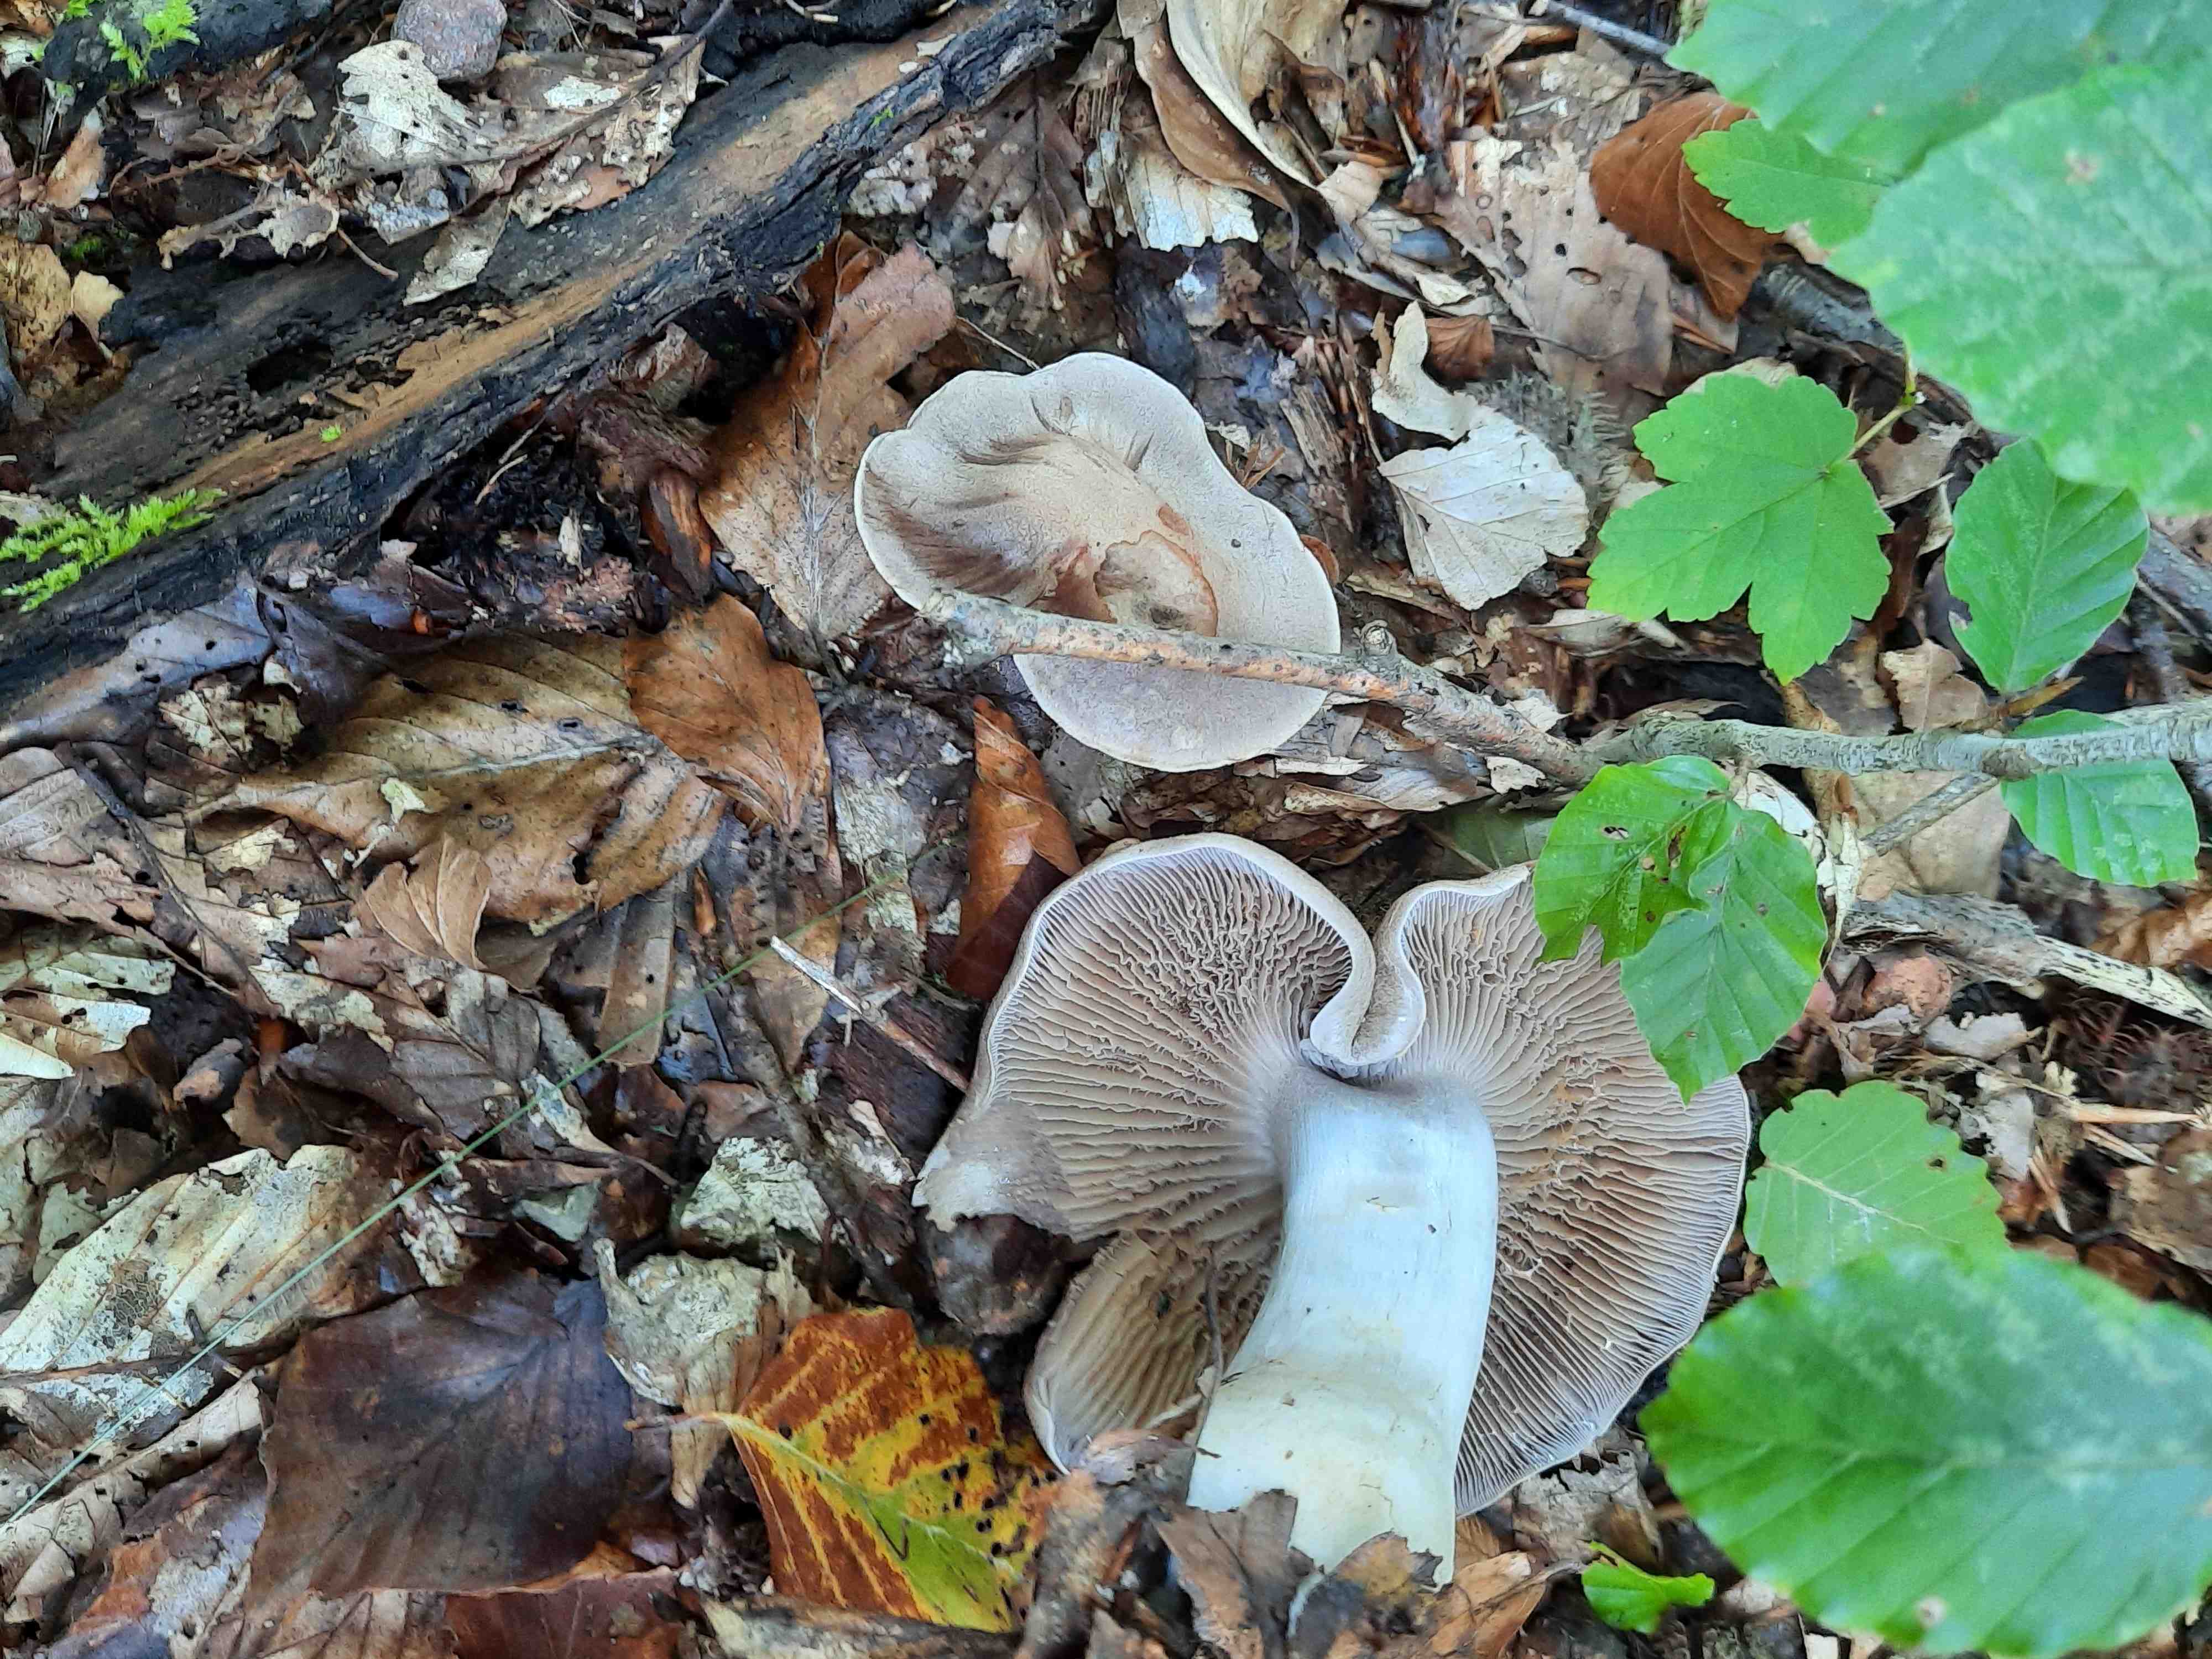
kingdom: Fungi
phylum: Basidiomycota
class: Agaricomycetes
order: Agaricales
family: Cortinariaceae
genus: Cortinarius
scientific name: Cortinarius
